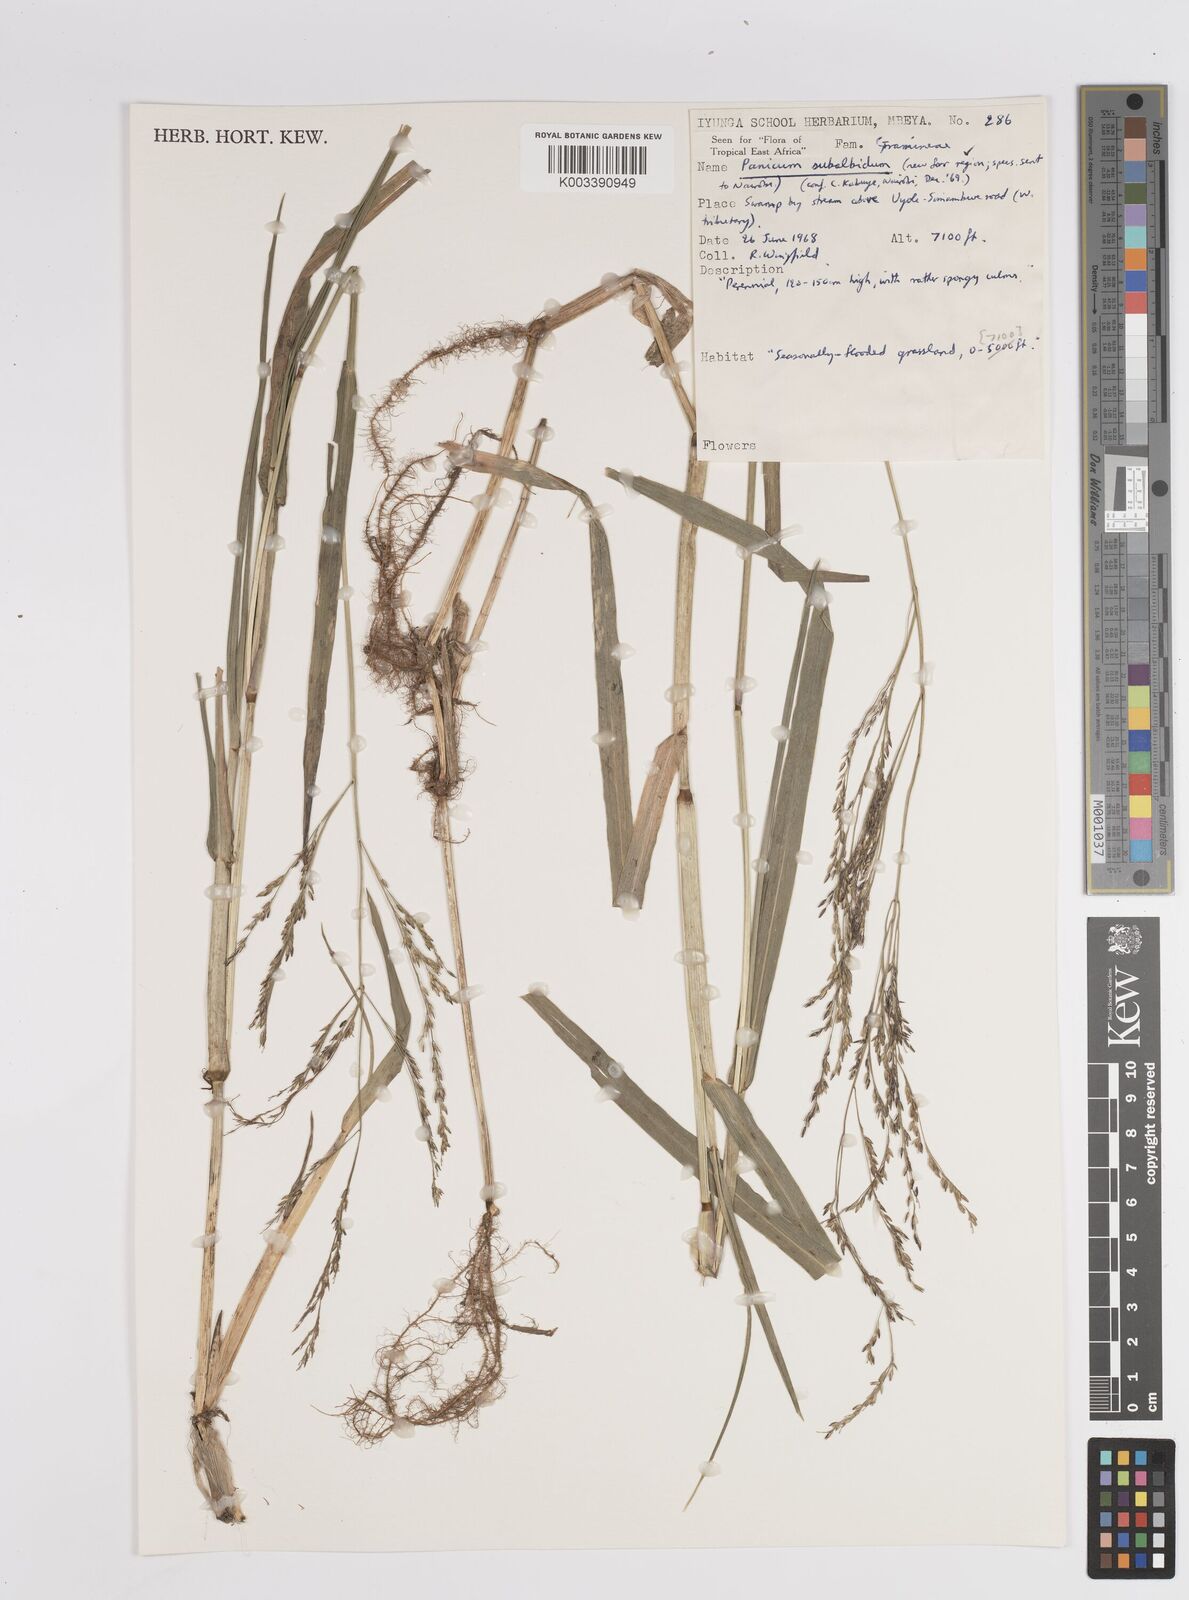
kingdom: Plantae
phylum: Tracheophyta
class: Liliopsida
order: Poales
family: Poaceae
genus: Panicum
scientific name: Panicum subalbidum
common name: Elbow buffalo grass
